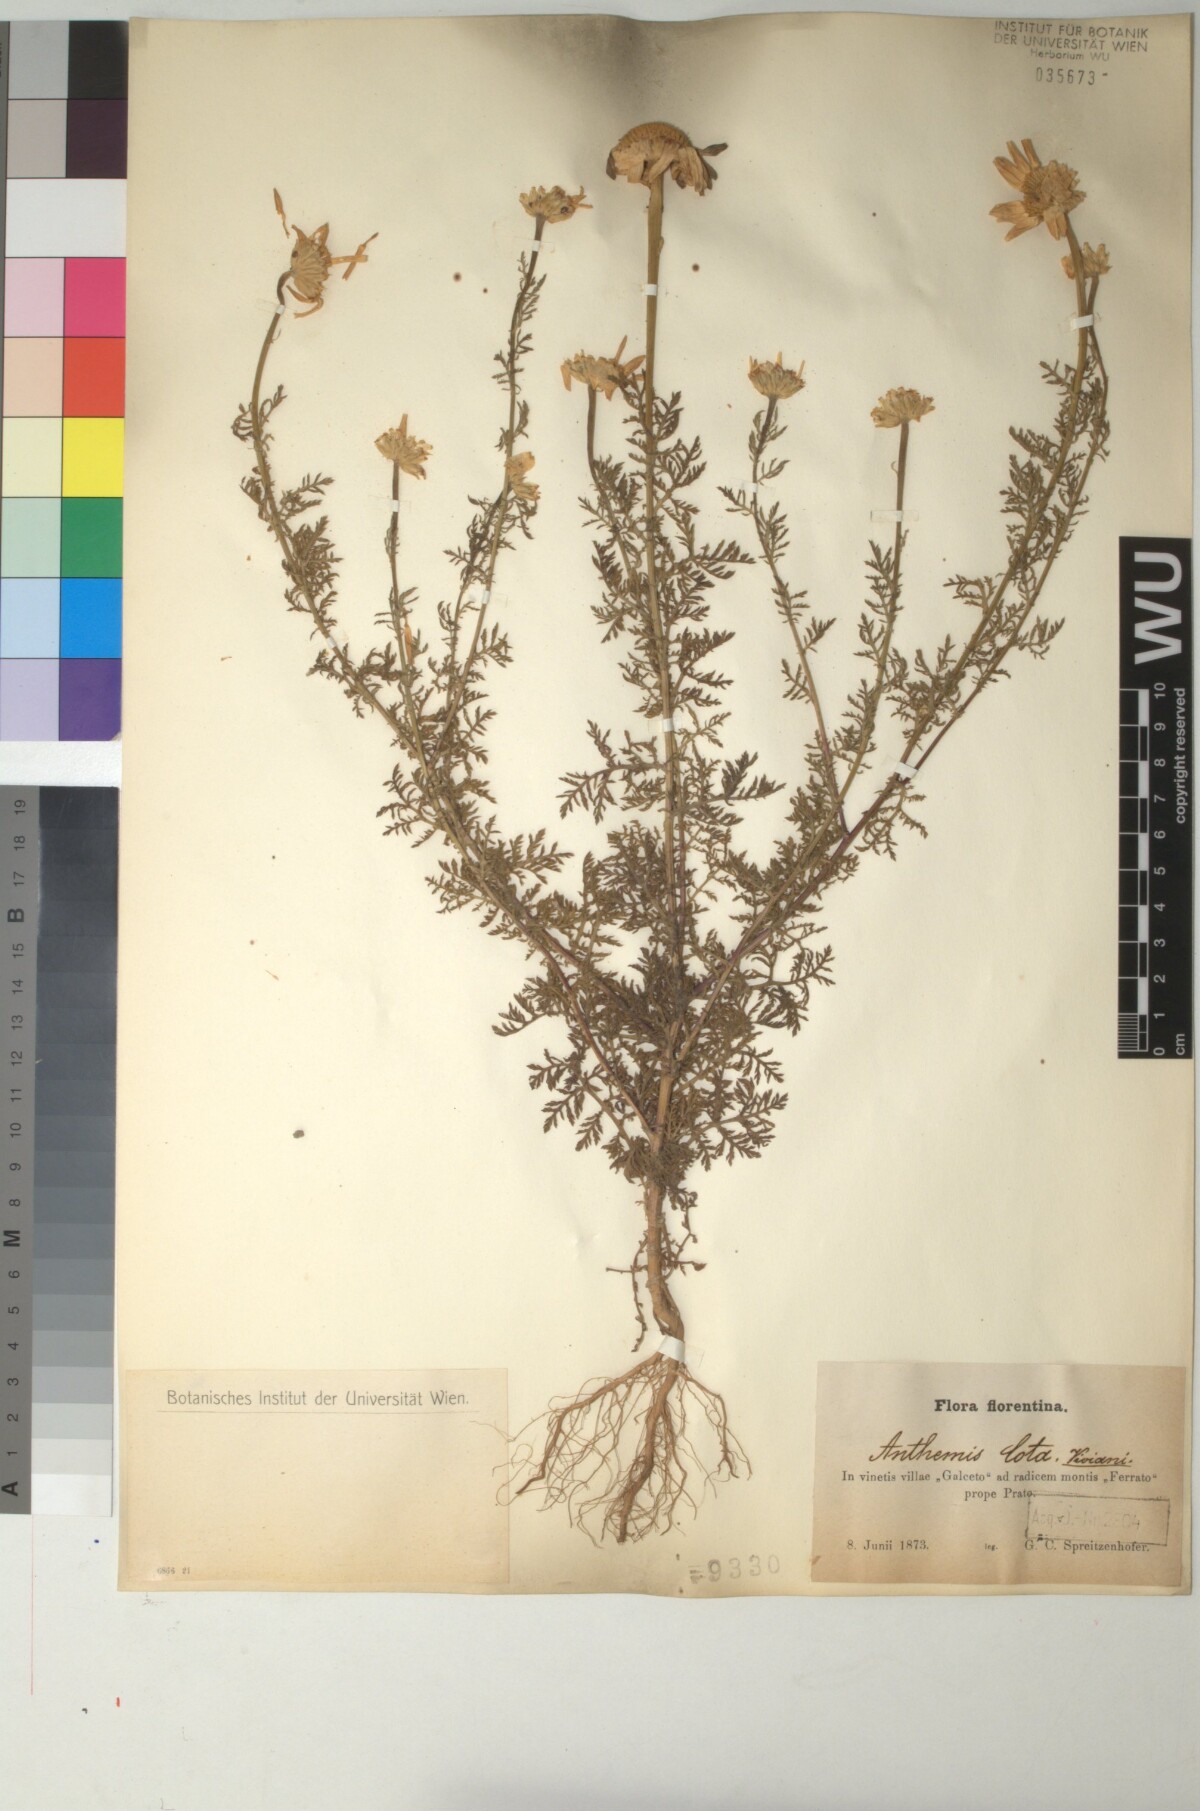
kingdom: Plantae
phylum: Tracheophyta
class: Magnoliopsida
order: Asterales
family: Asteraceae
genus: Cota
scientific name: Cota altissima
